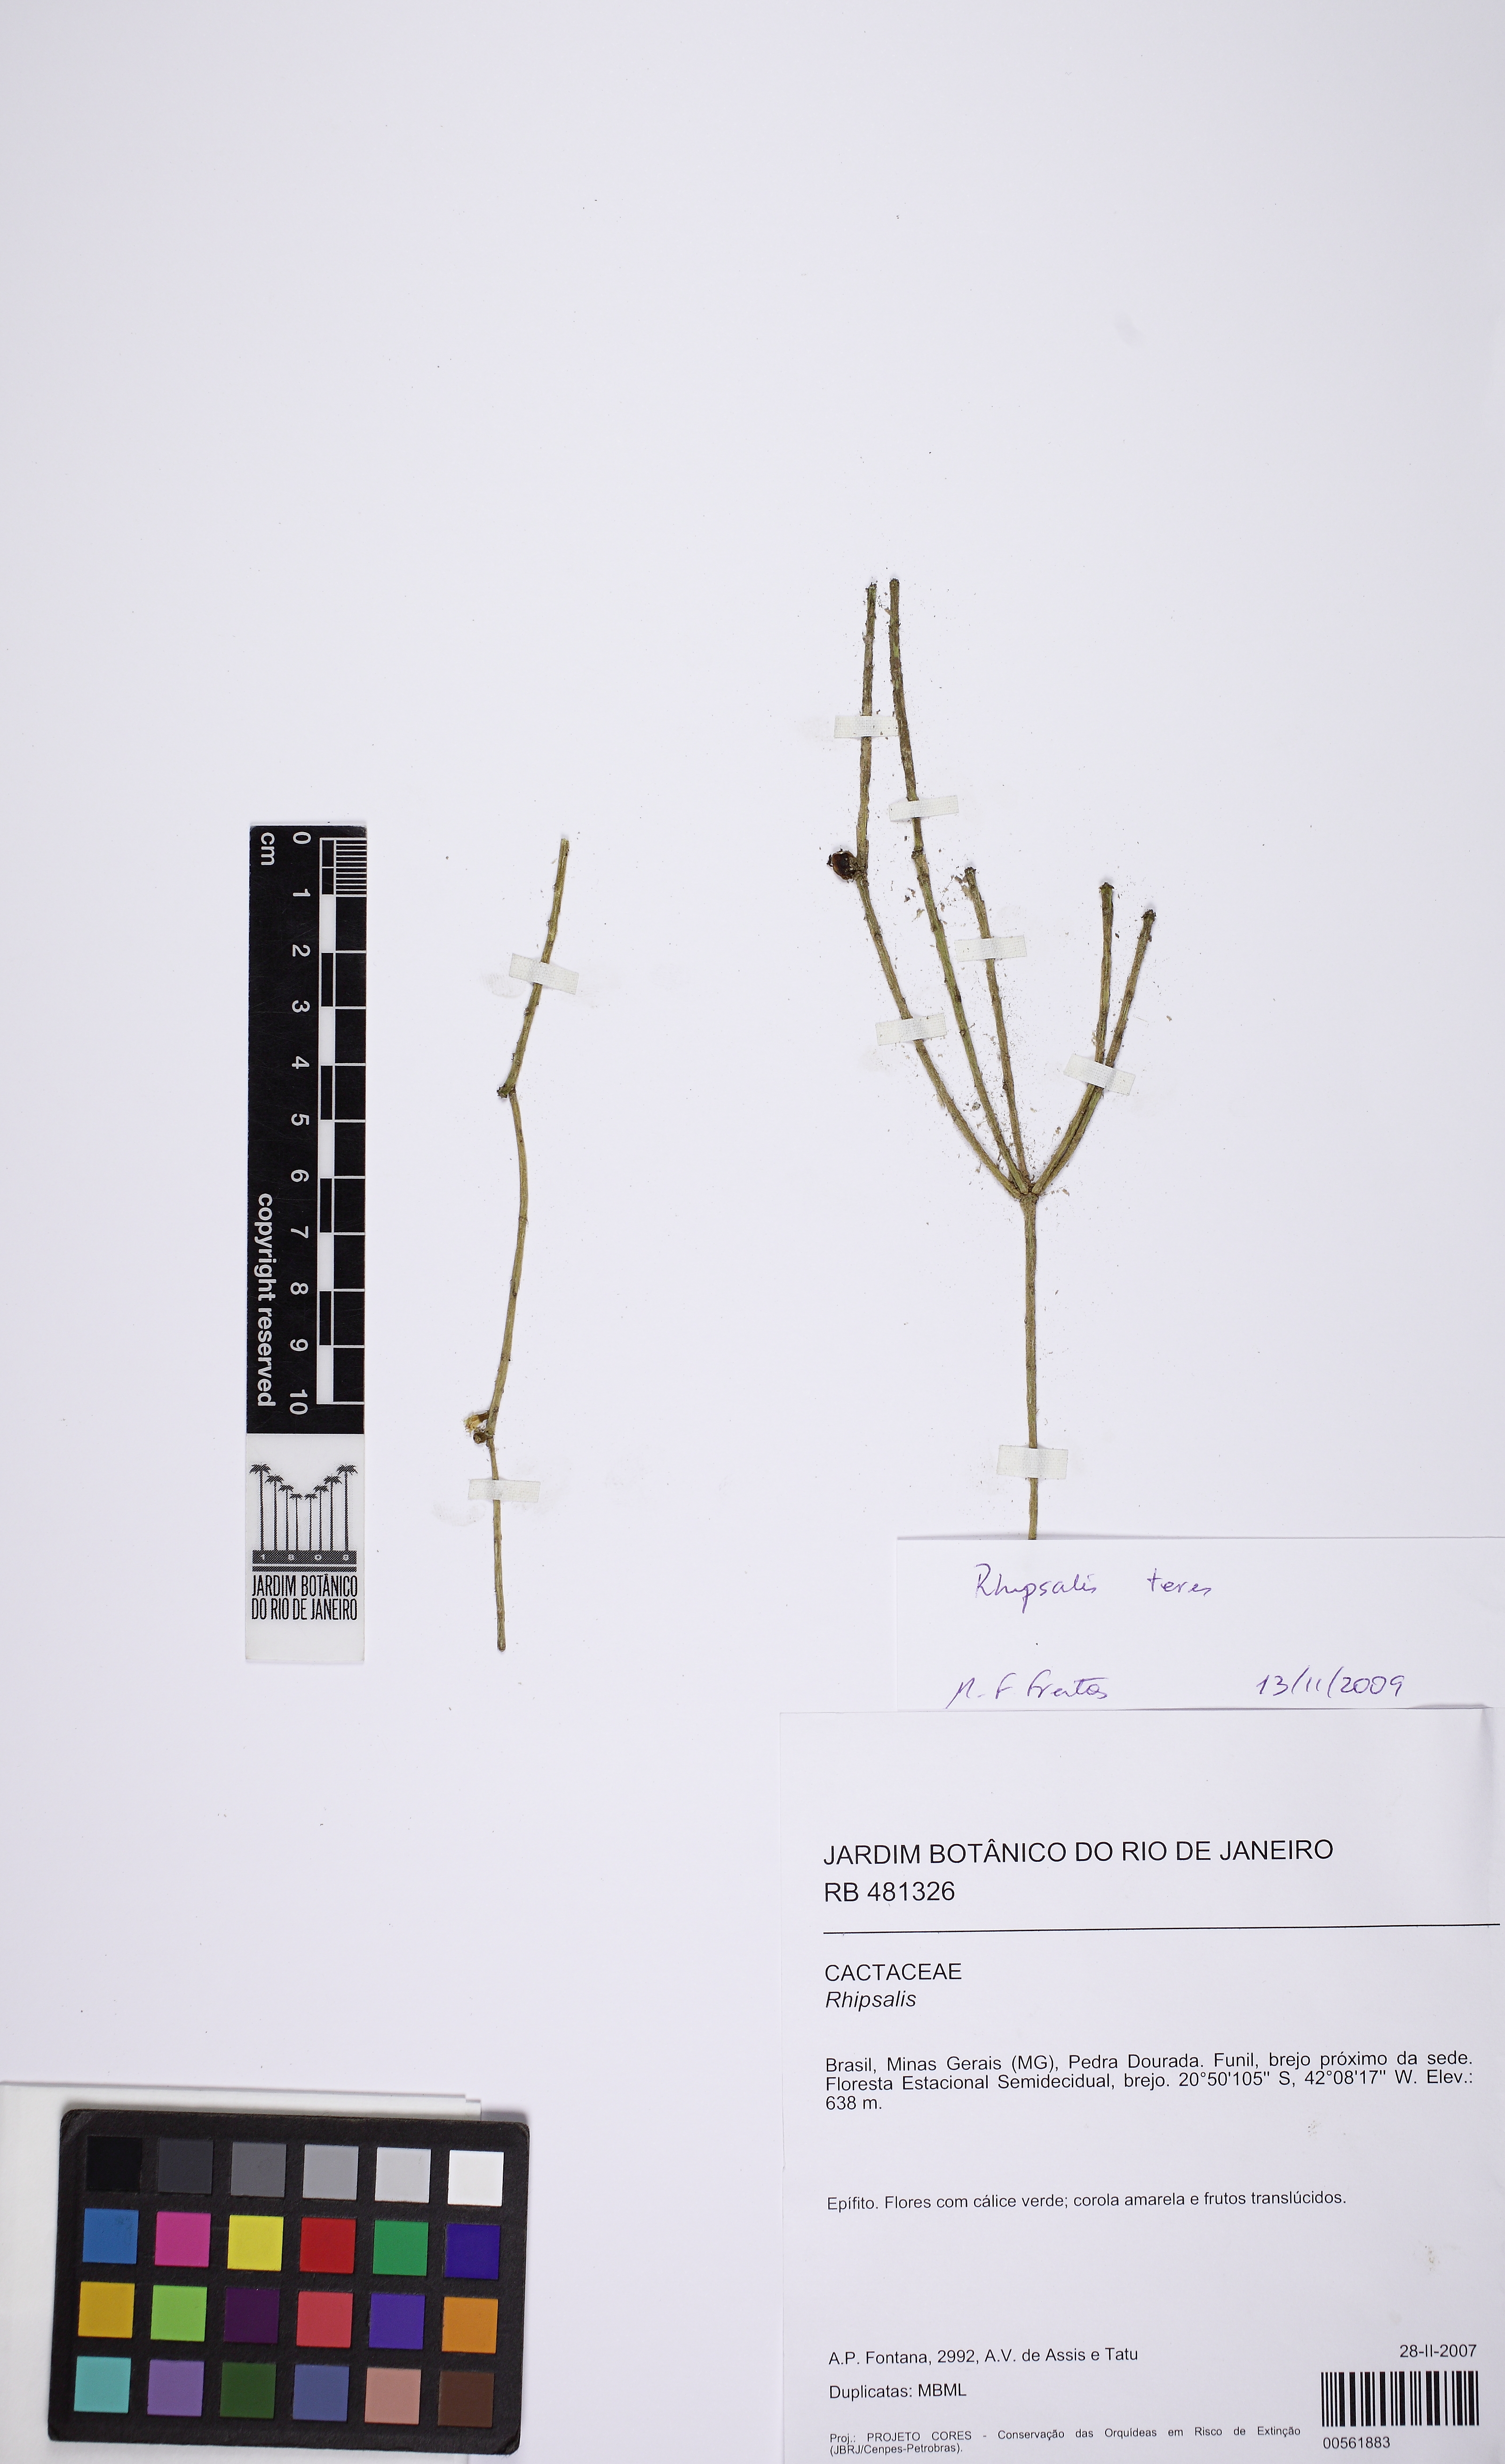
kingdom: Plantae
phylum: Tracheophyta
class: Magnoliopsida
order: Caryophyllales
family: Cactaceae
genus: Rhipsalis
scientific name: Rhipsalis teres
